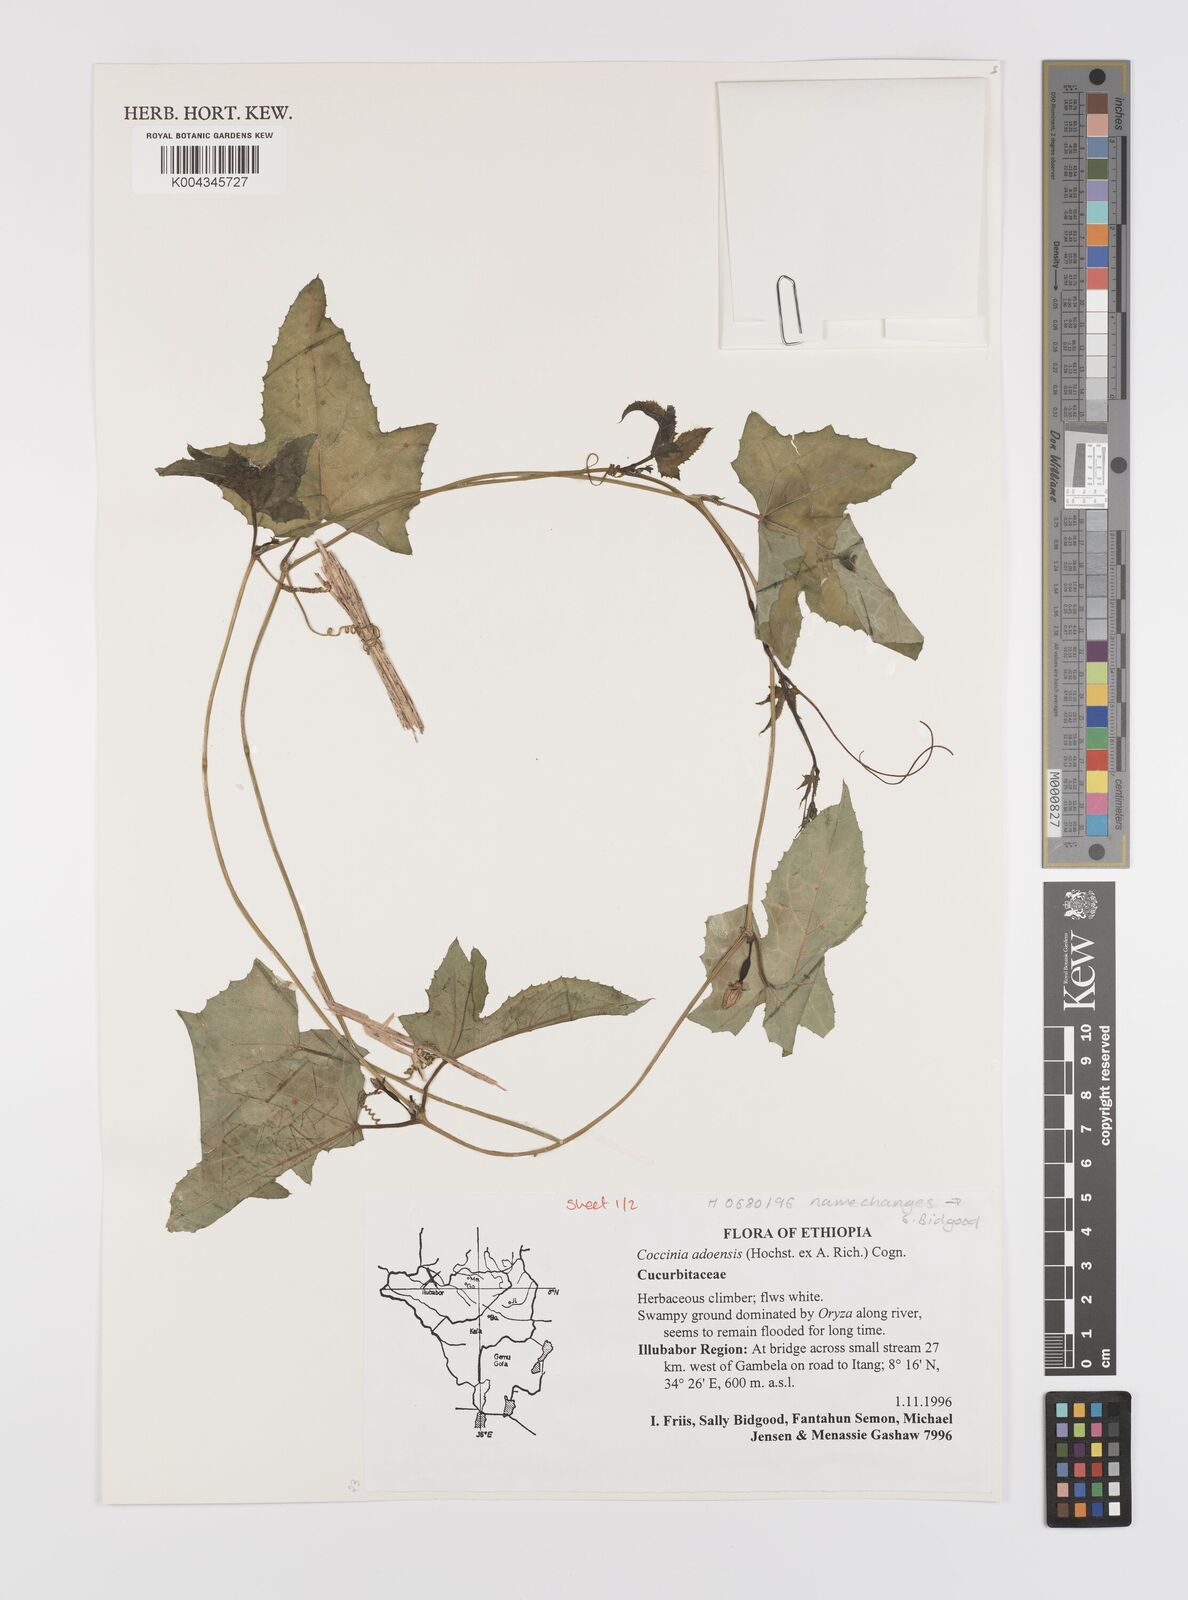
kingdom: Plantae
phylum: Tracheophyta
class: Magnoliopsida
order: Cucurbitales
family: Cucurbitaceae
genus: Coccinia
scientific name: Coccinia adoensis
